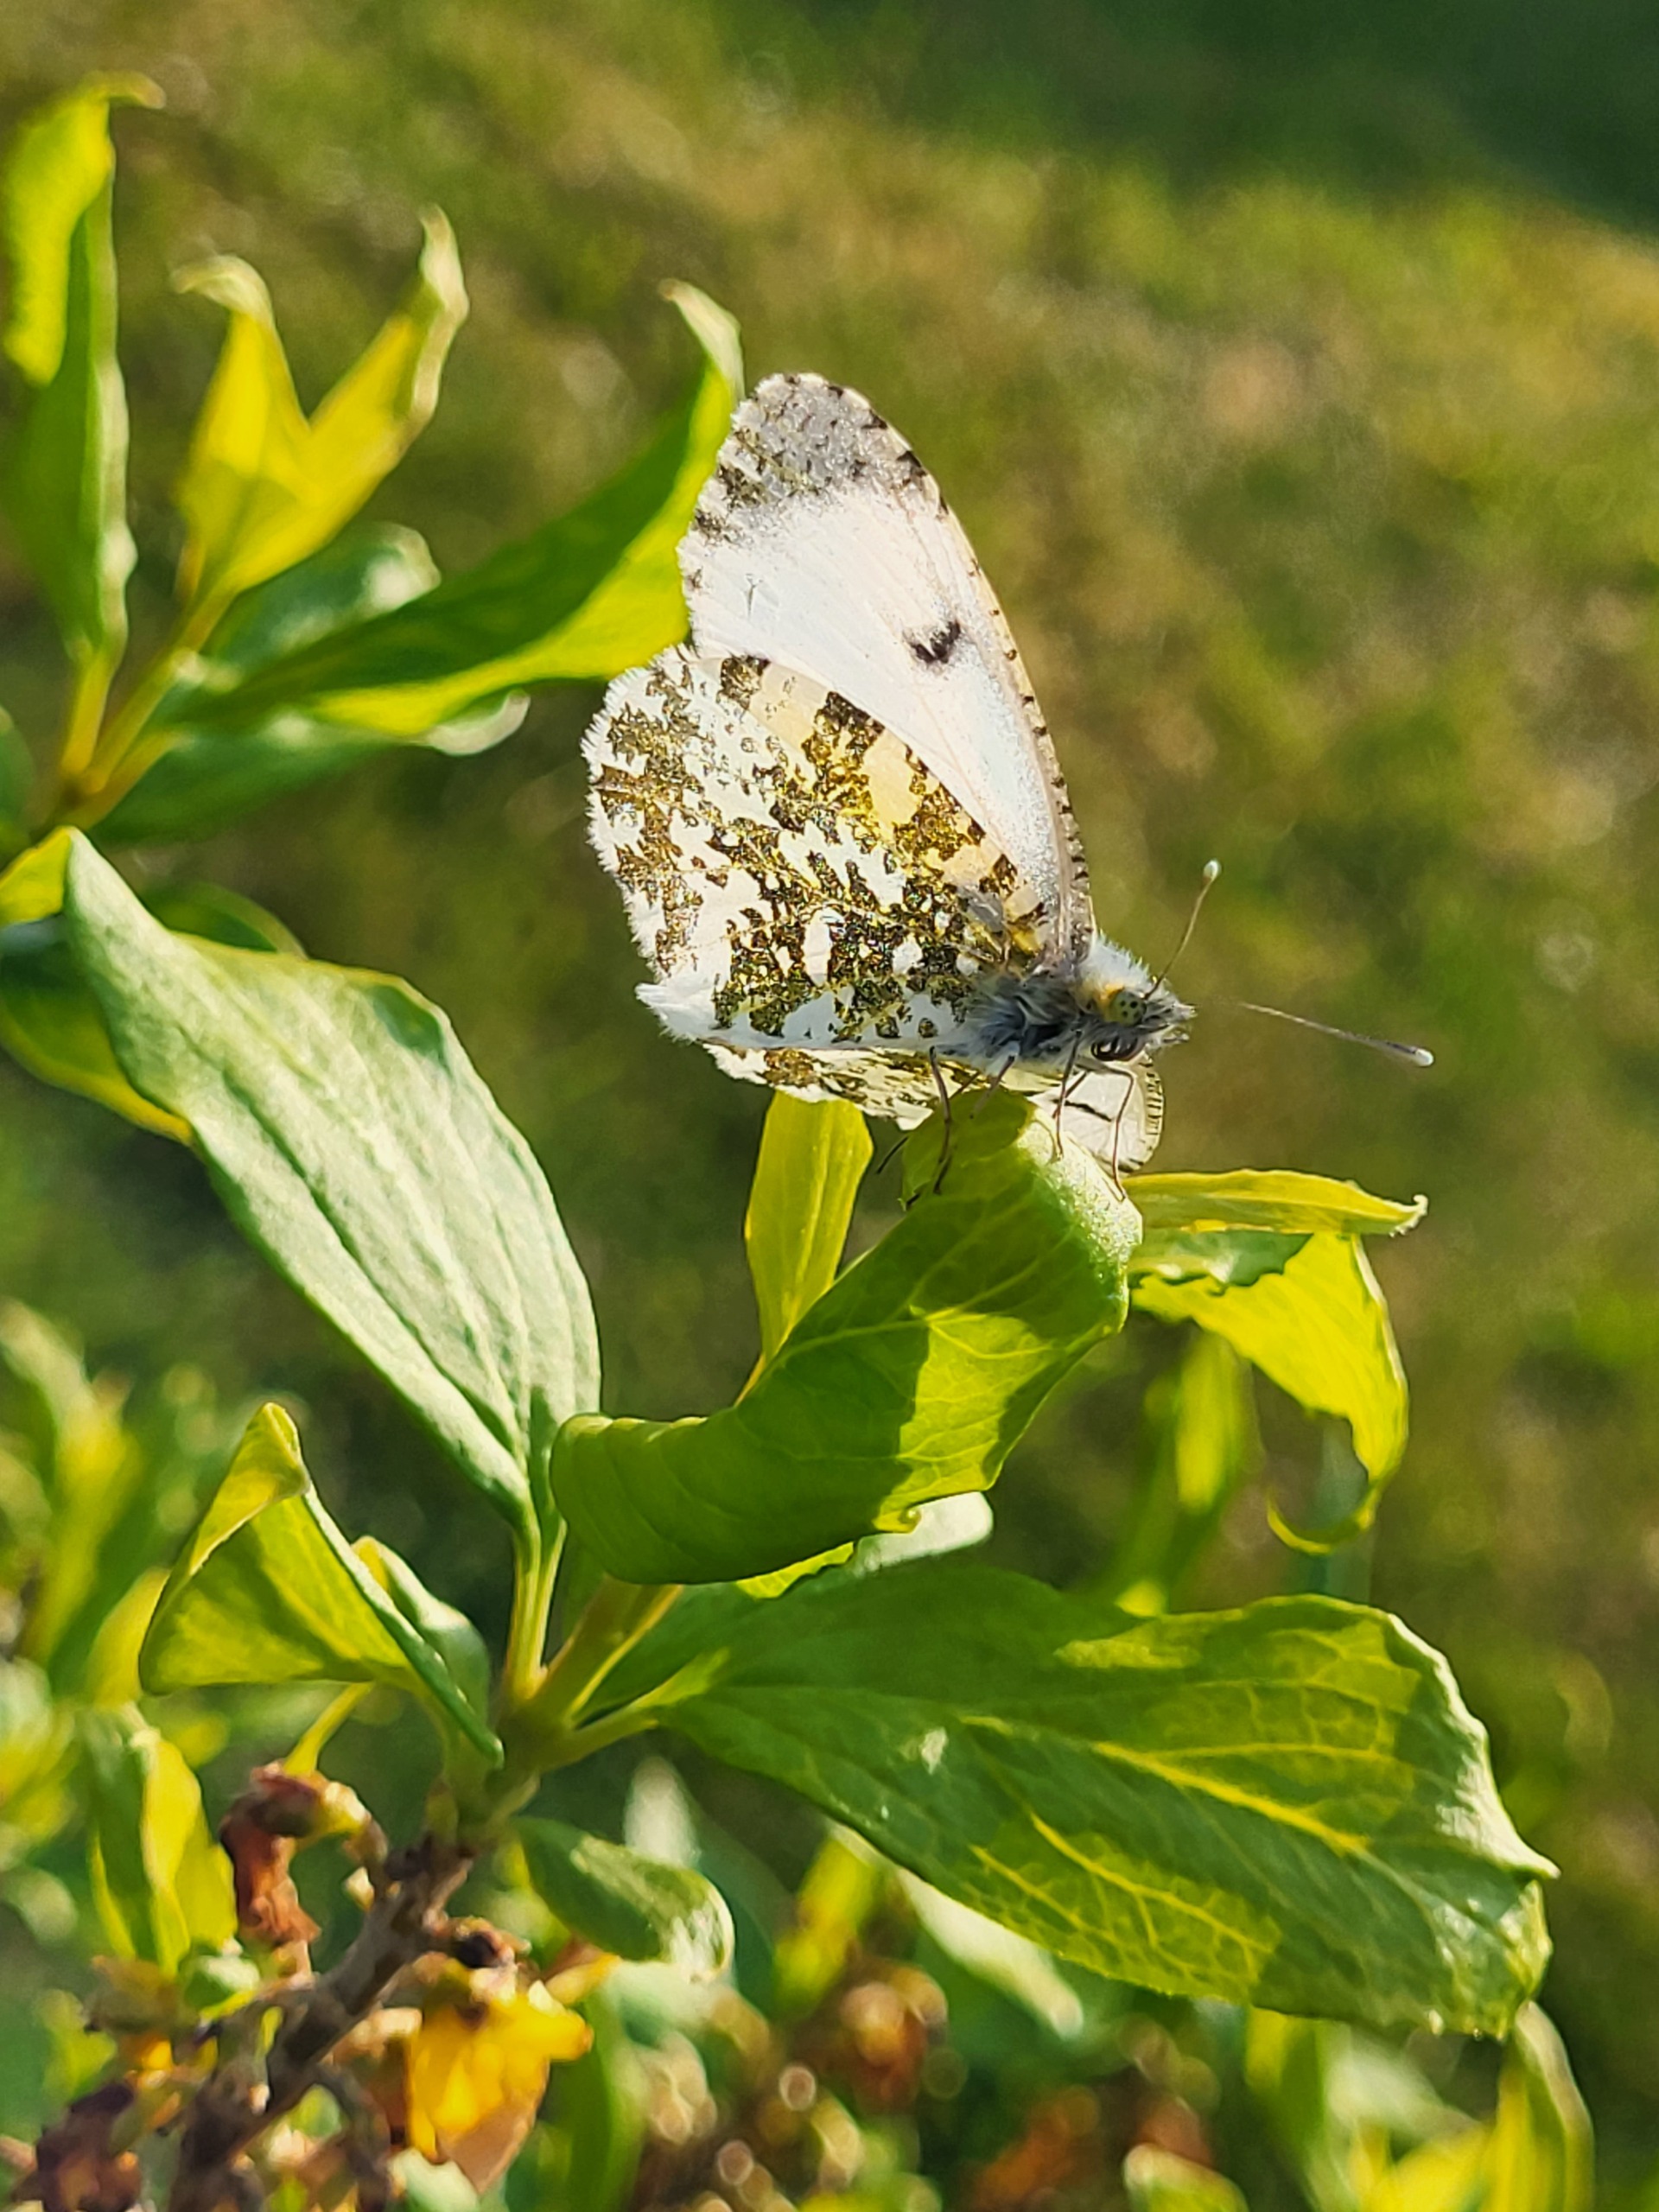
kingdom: Animalia
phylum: Arthropoda
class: Insecta
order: Lepidoptera
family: Pieridae
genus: Anthocharis
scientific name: Anthocharis cardamines
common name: Aurora
